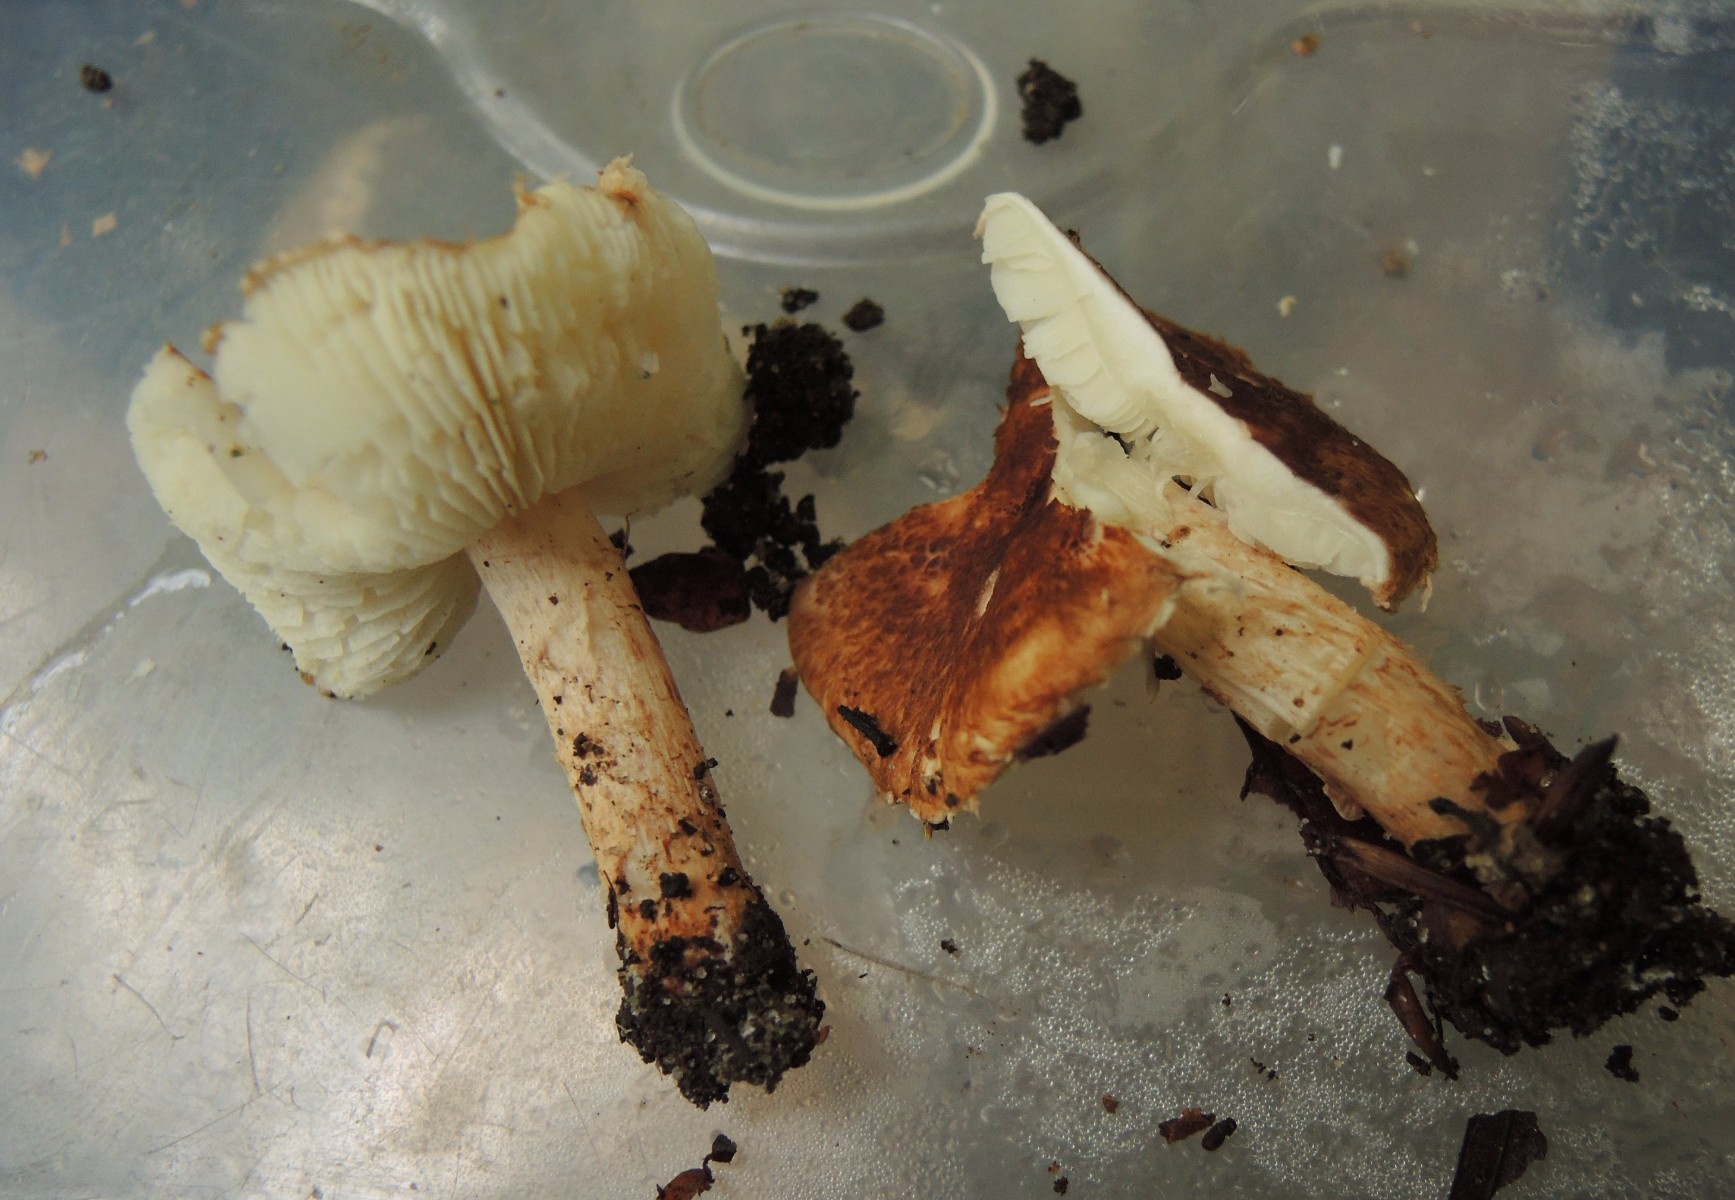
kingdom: Fungi
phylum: Basidiomycota
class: Agaricomycetes
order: Agaricales
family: Agaricaceae
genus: Leucocoprinus
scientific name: Leucocoprinus straminellus
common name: rustbrun parasolhat
